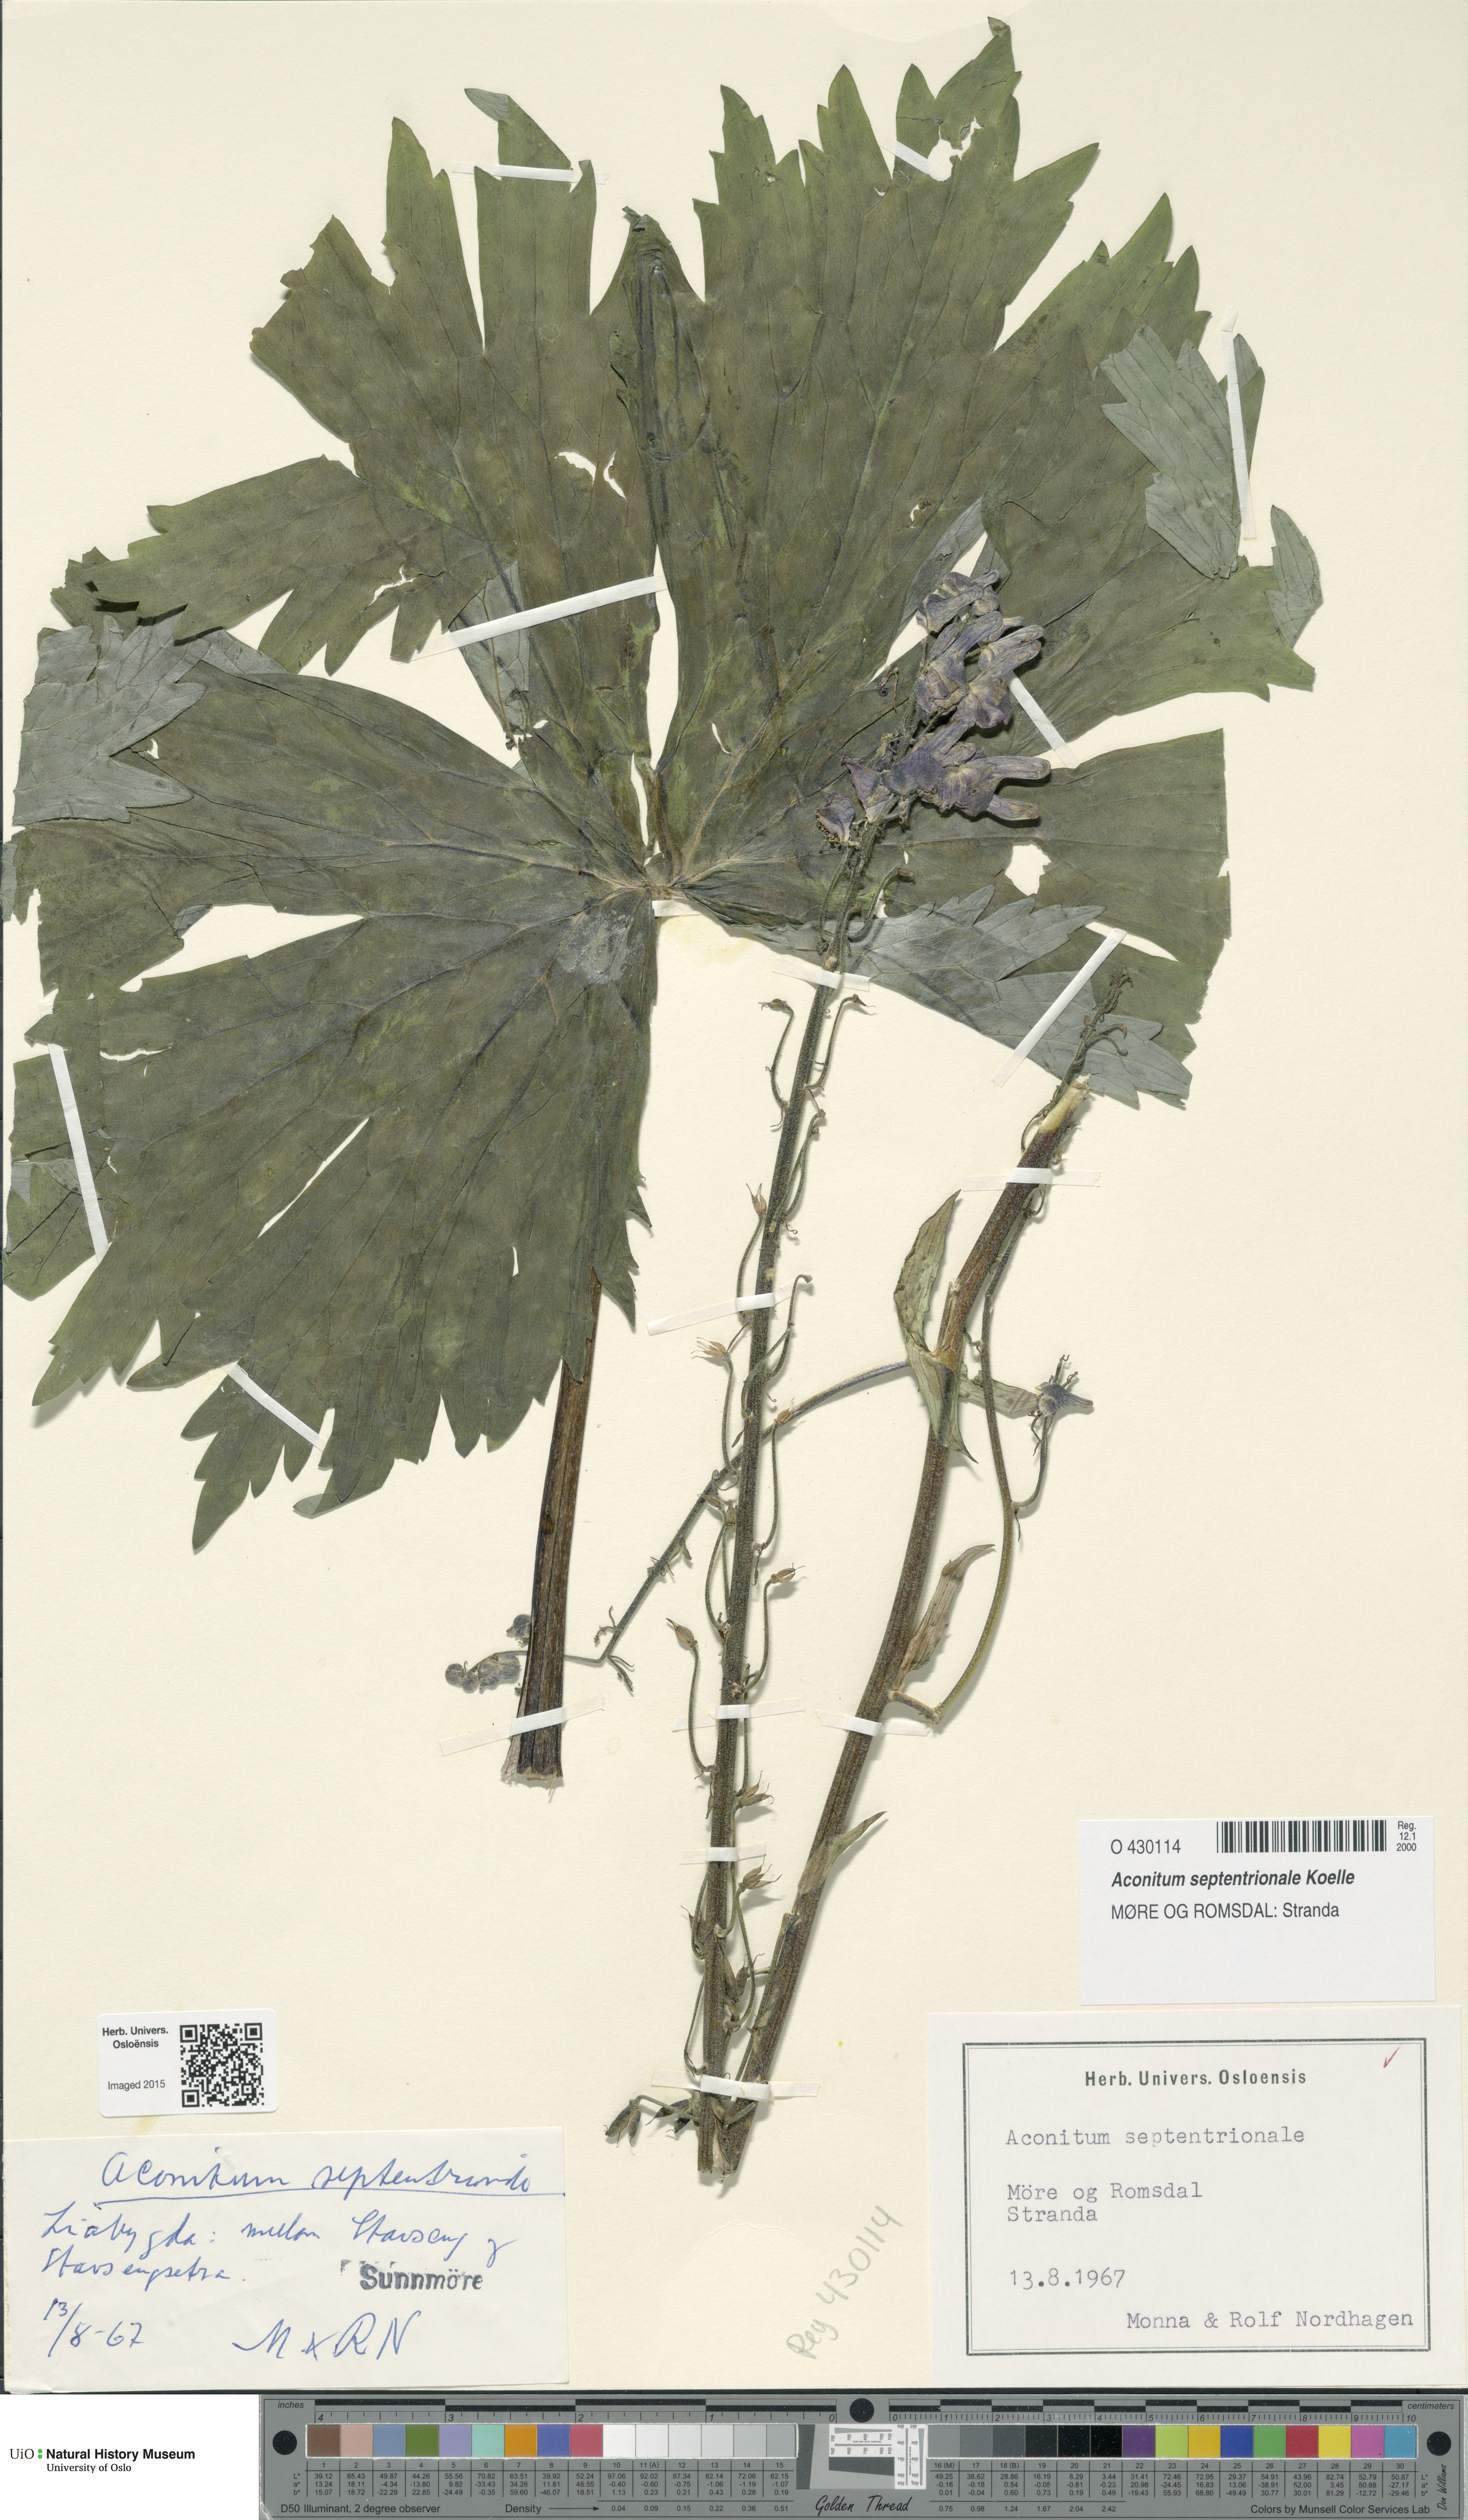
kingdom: Plantae
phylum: Tracheophyta
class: Magnoliopsida
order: Ranunculales
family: Ranunculaceae
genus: Aconitum
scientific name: Aconitum septentrionale
